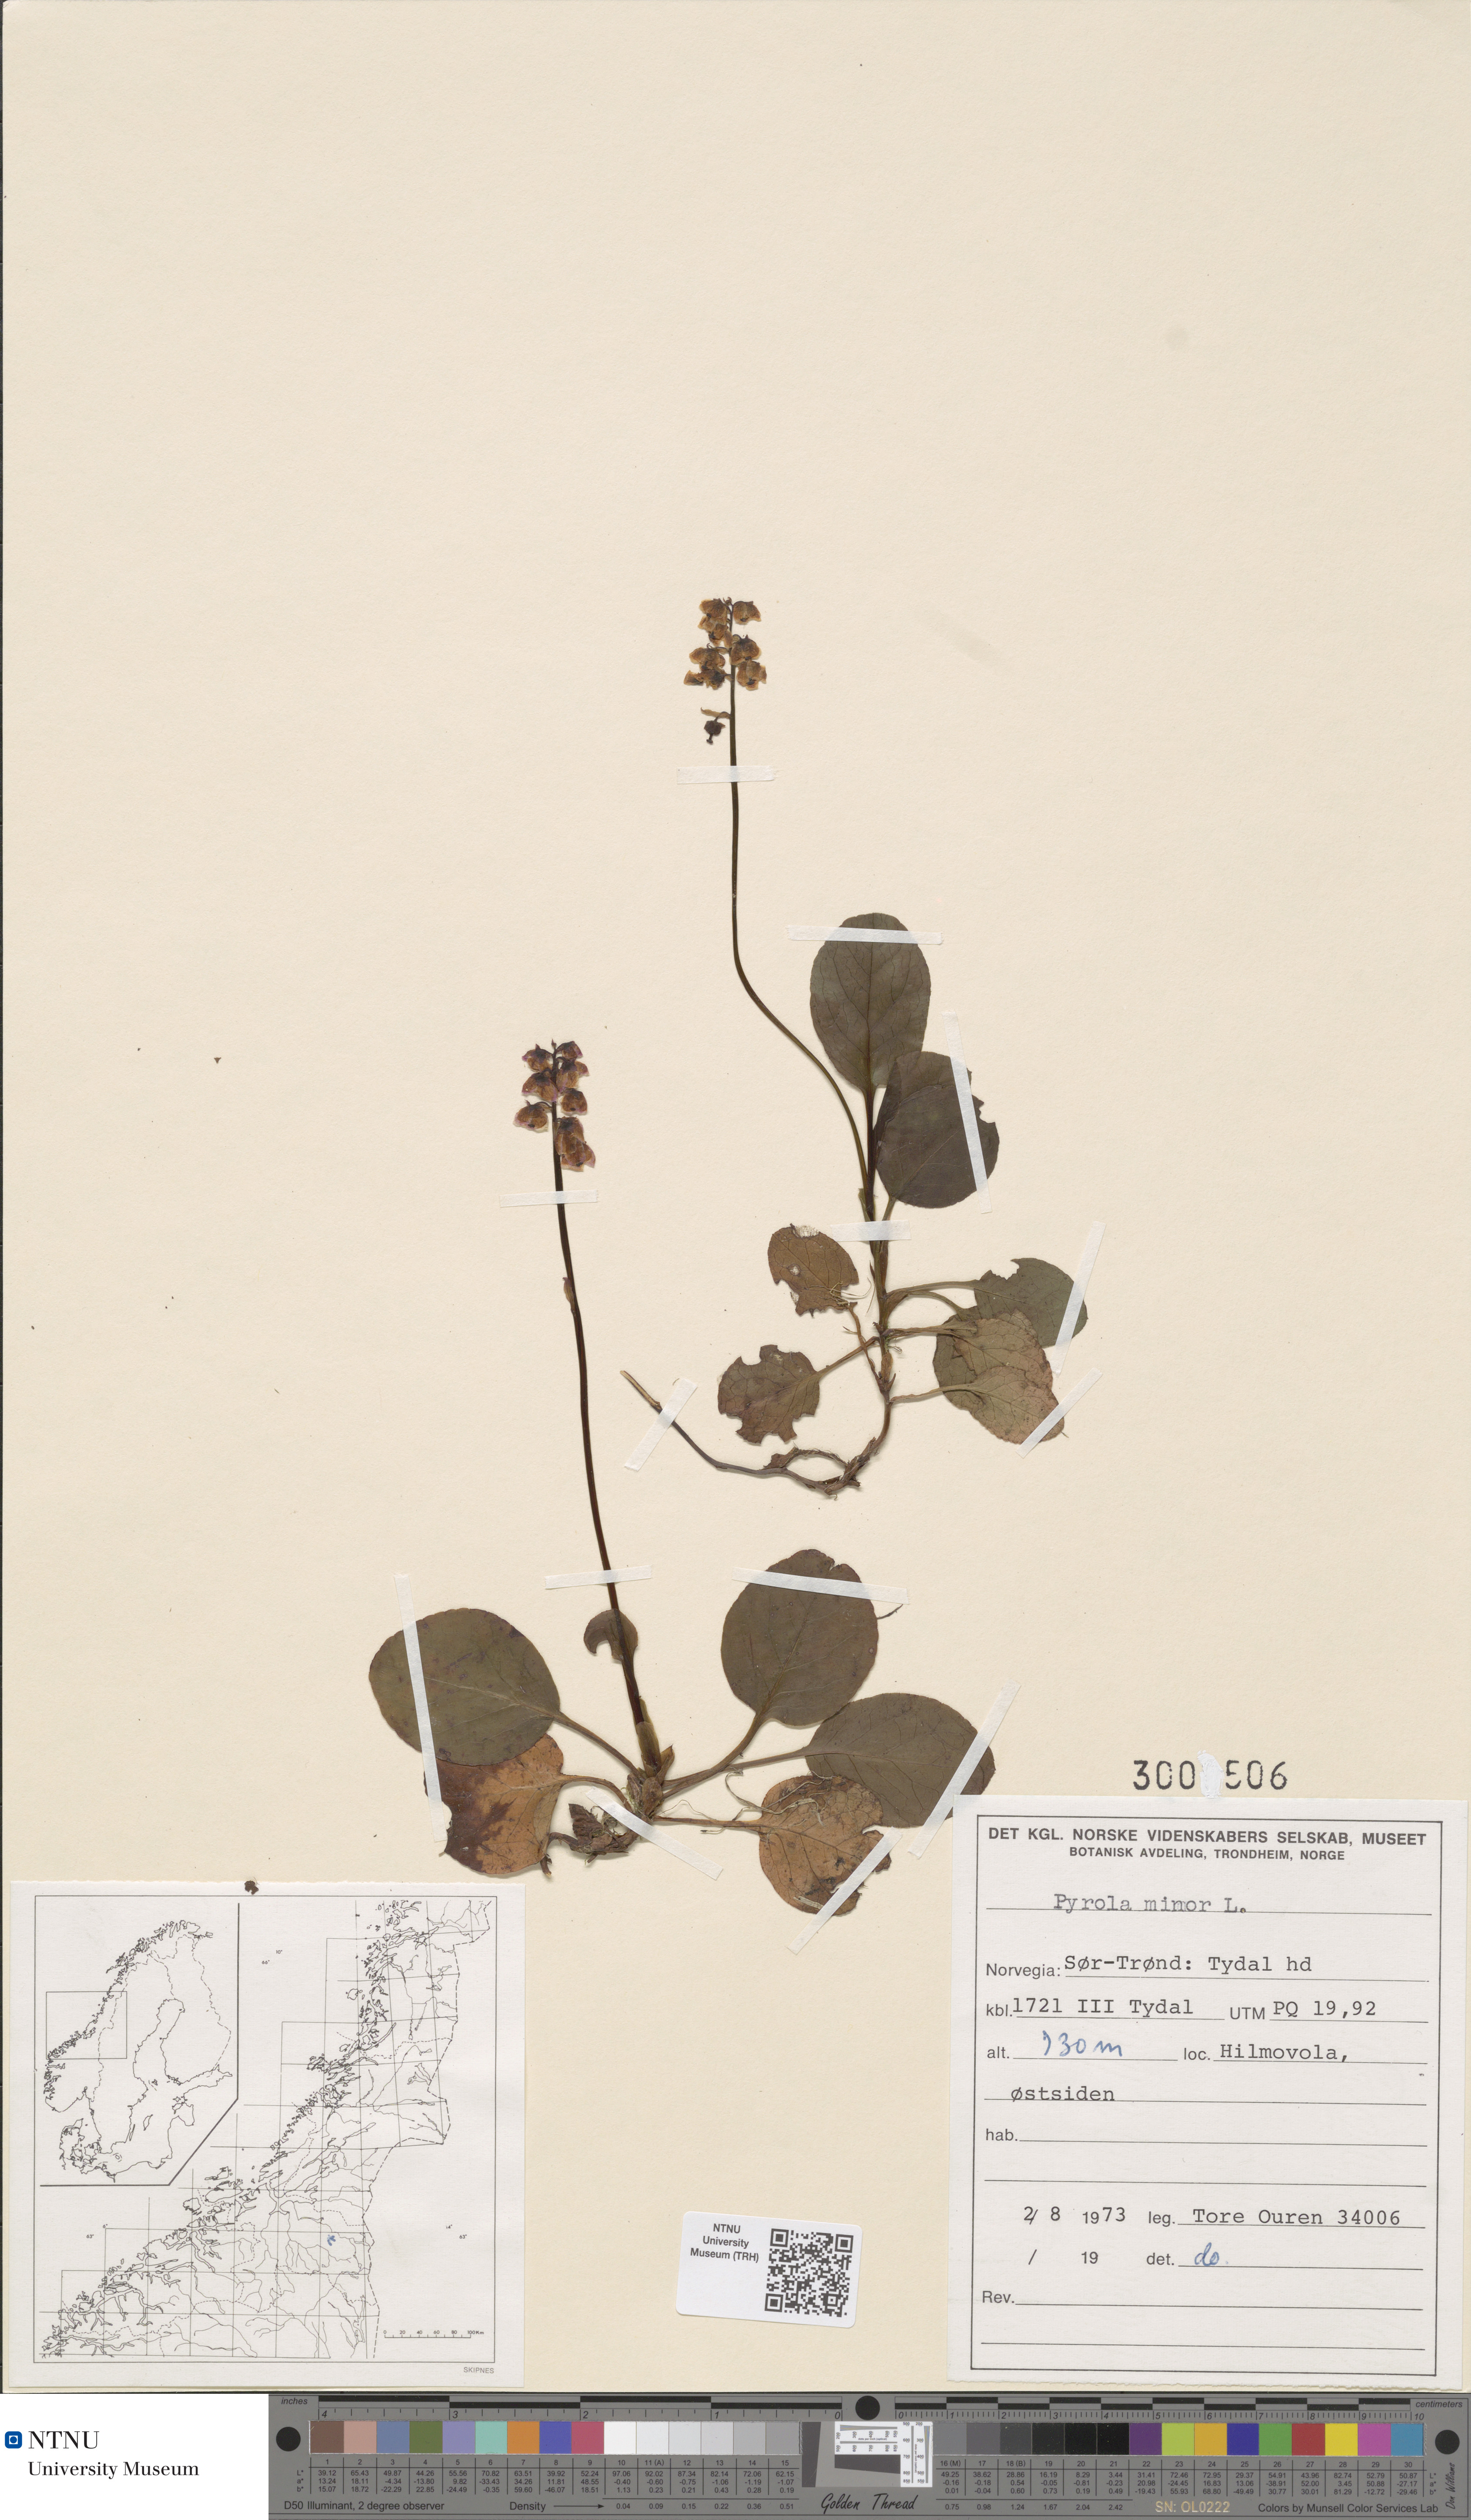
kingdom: Plantae
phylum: Tracheophyta
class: Magnoliopsida
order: Ericales
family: Ericaceae
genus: Pyrola
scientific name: Pyrola minor
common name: Common wintergreen
